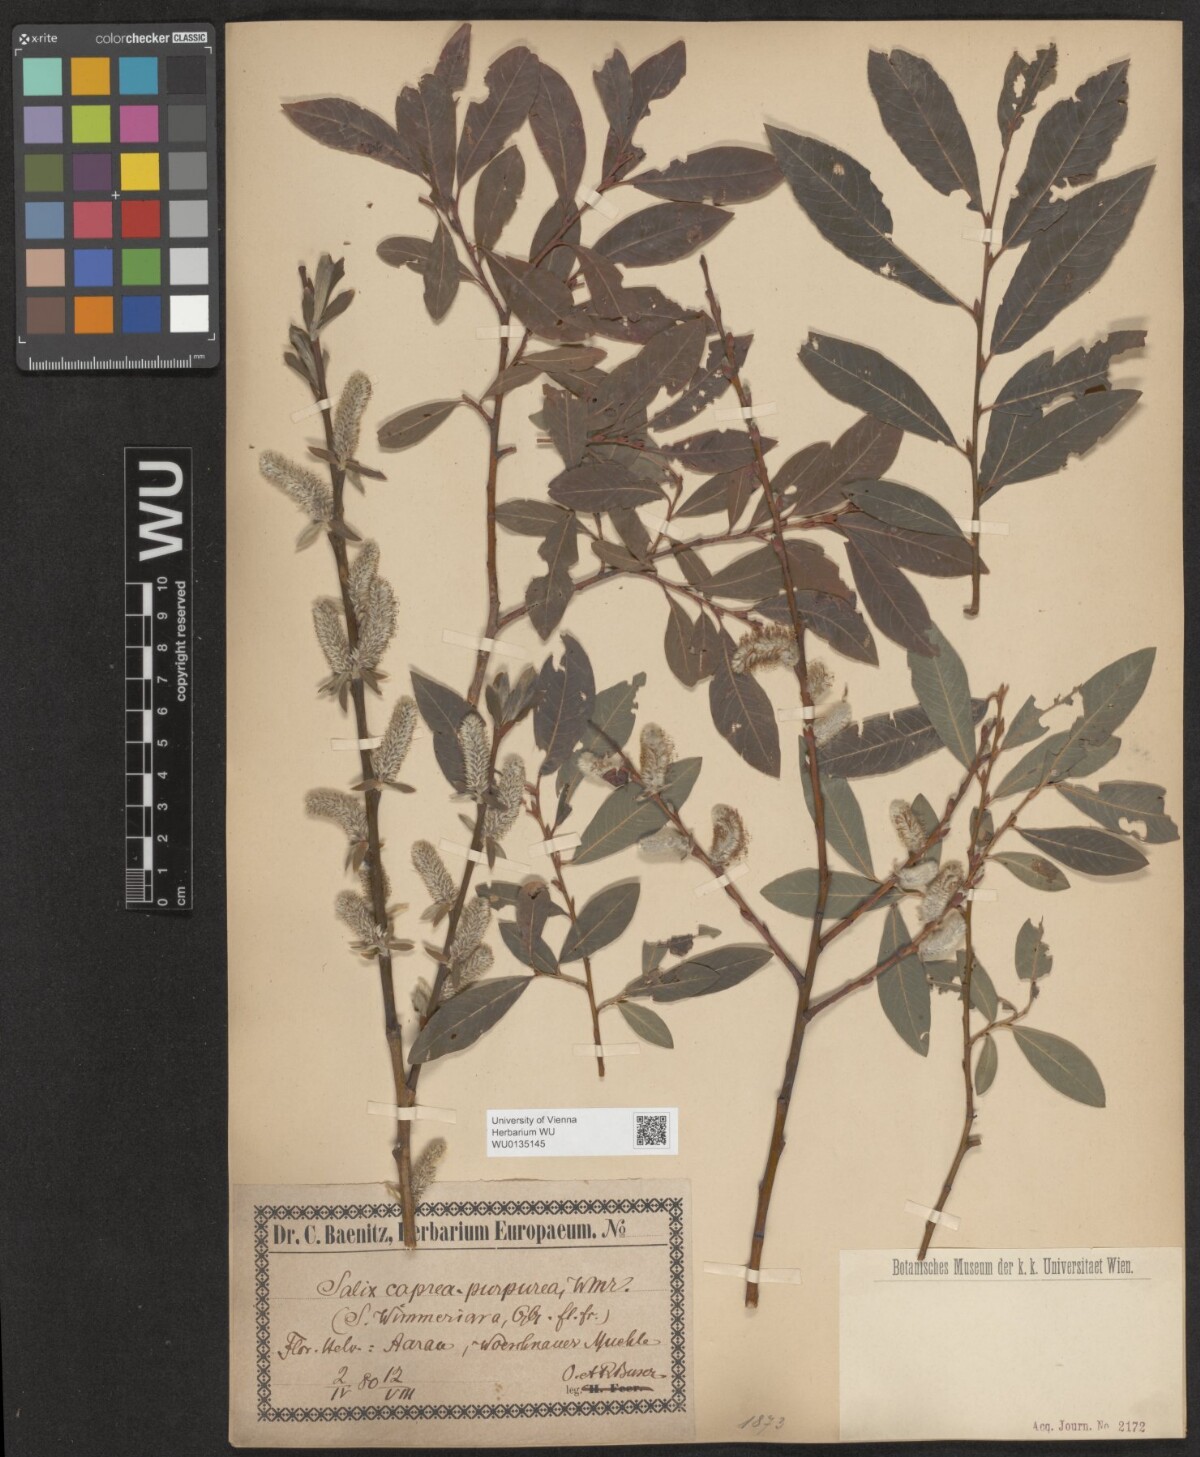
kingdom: Plantae
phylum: Tracheophyta
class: Magnoliopsida
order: Malpighiales
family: Salicaceae
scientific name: Salicaceae
